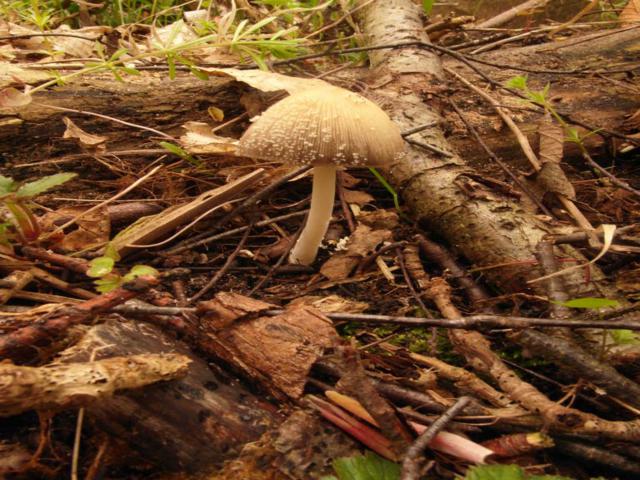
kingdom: Fungi
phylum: Basidiomycota
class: Agaricomycetes
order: Agaricales
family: Psathyrellaceae
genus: Coprinellus
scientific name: Coprinellus xanthothrix
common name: gultrådet blækhat
